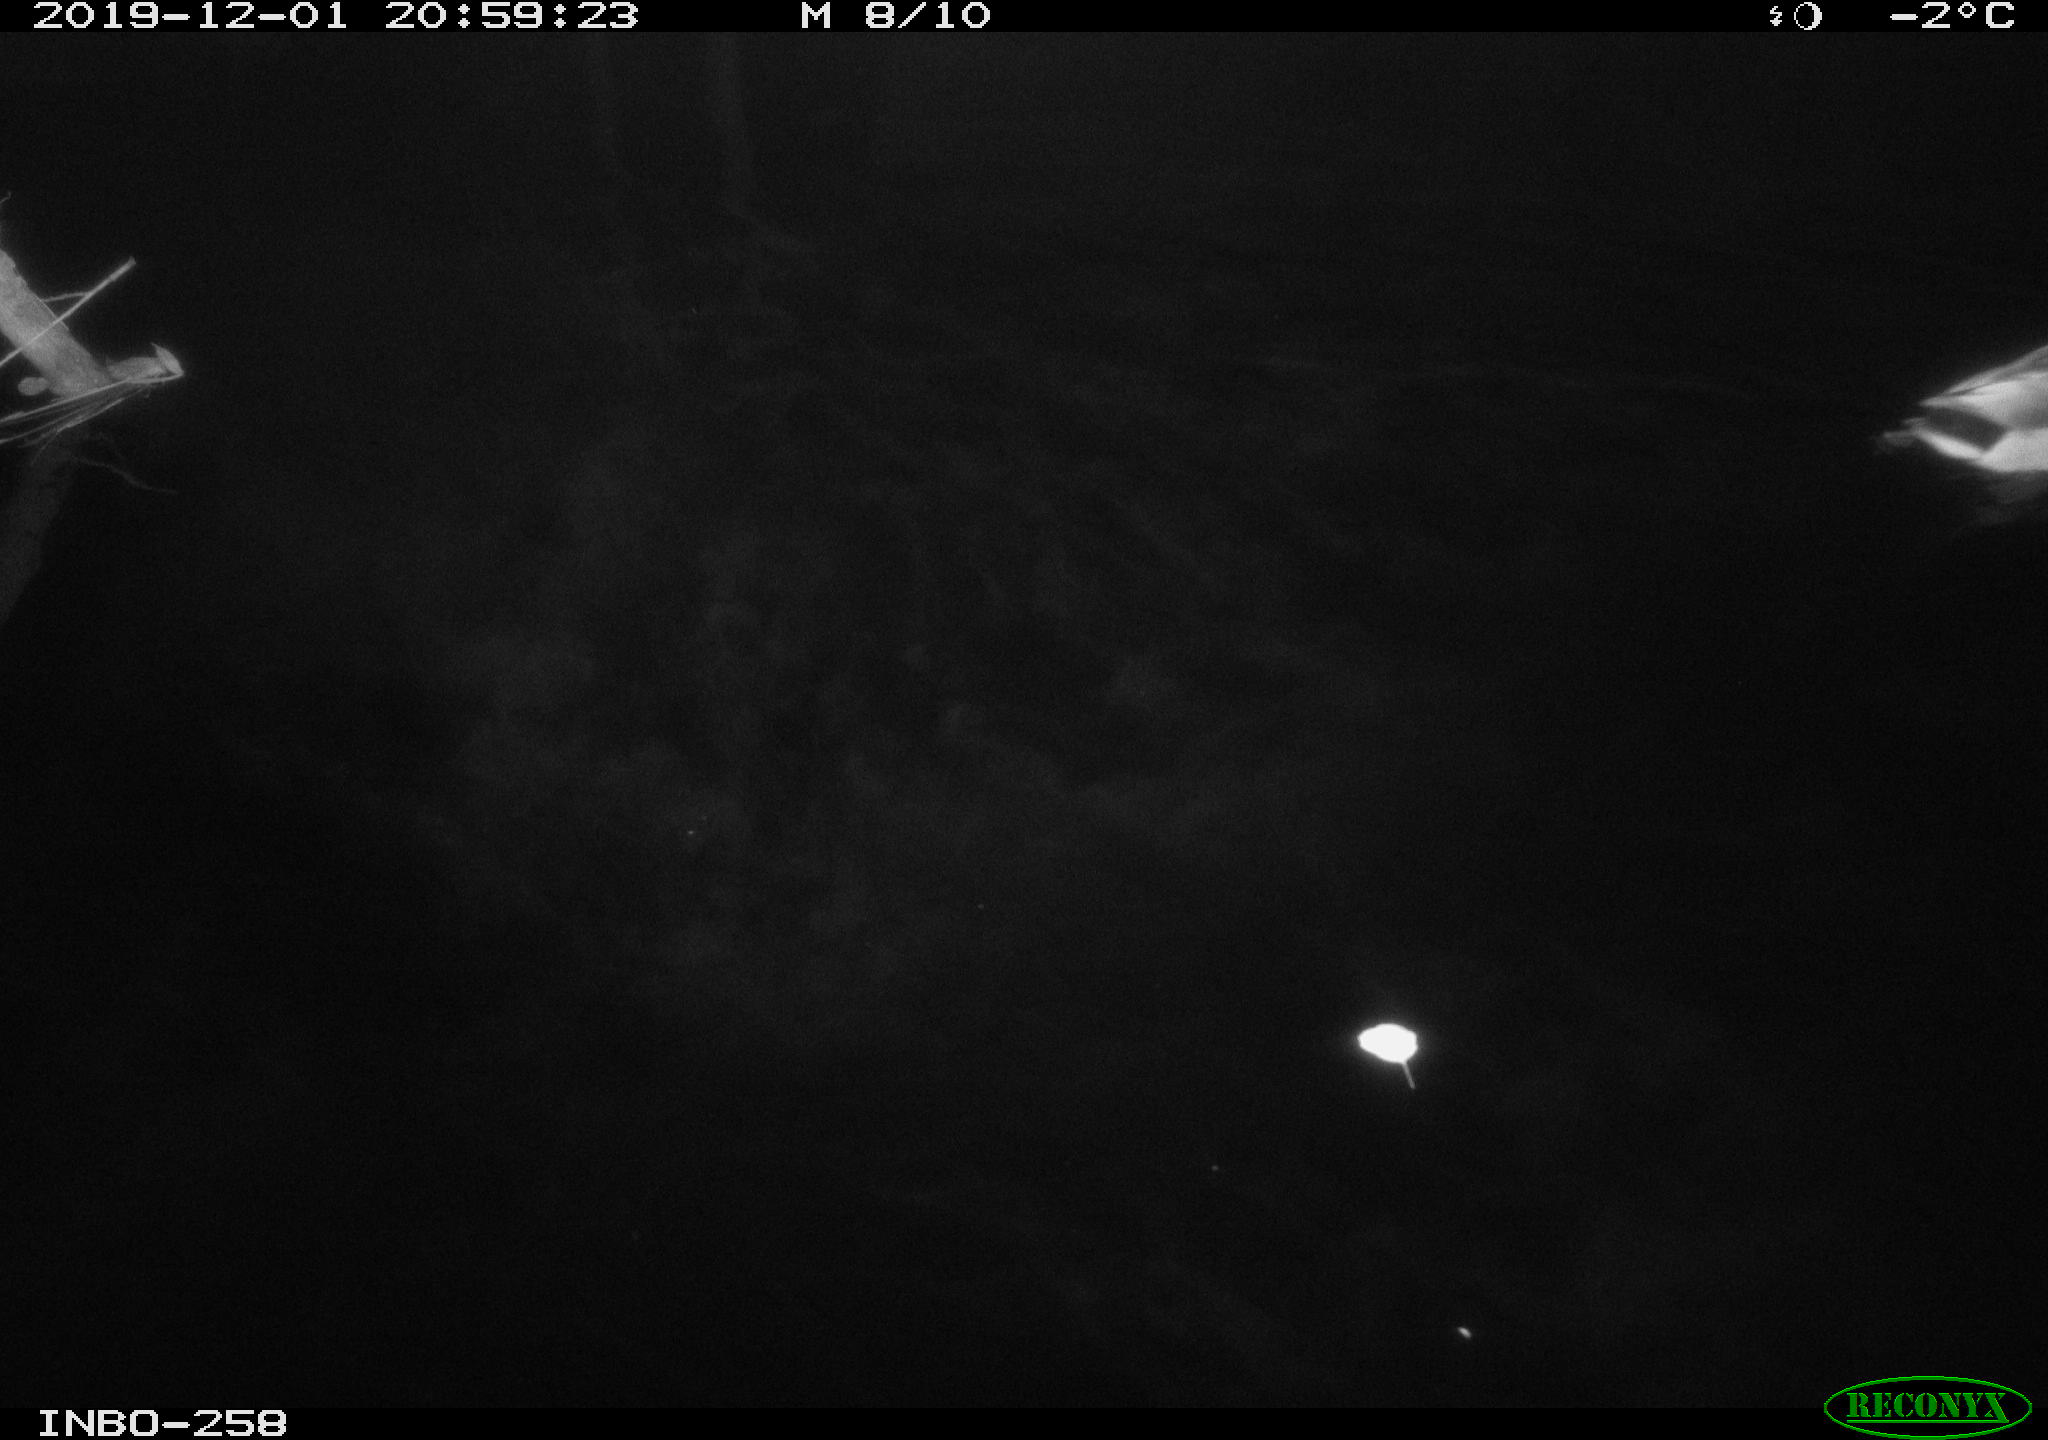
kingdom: Animalia
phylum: Chordata
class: Aves
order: Anseriformes
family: Anatidae
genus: Anas
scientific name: Anas platyrhynchos
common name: Mallard
